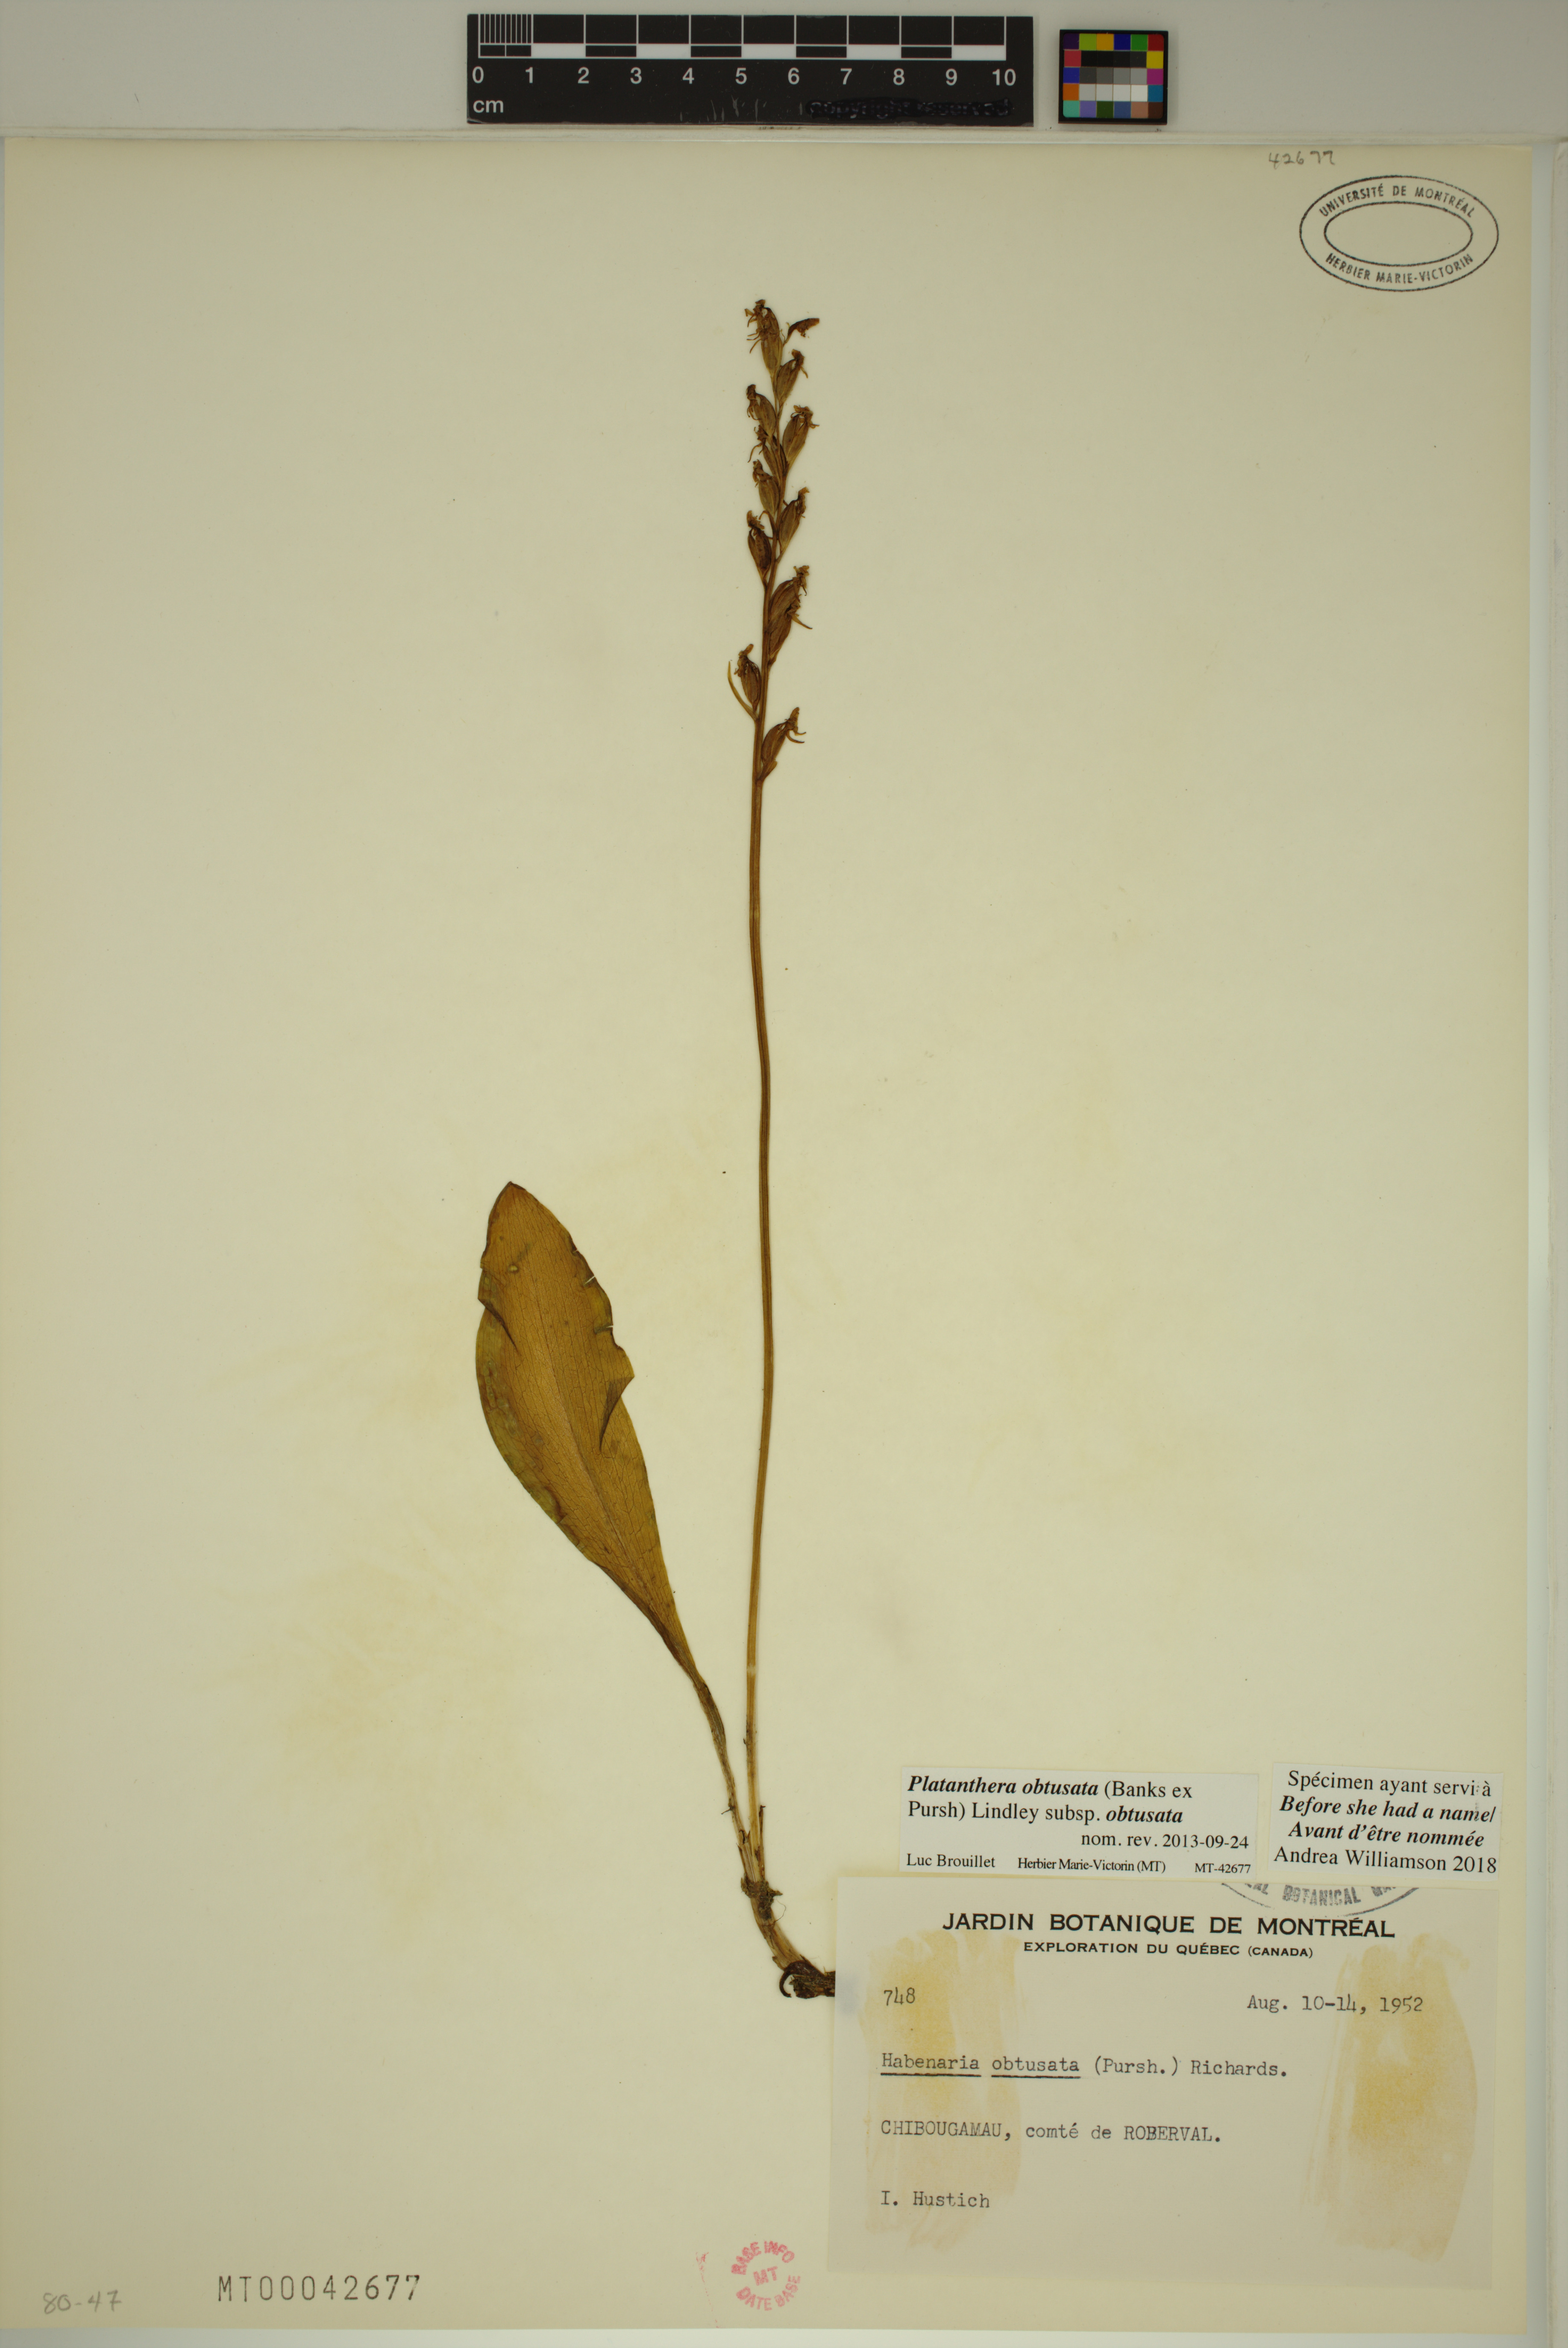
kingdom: Plantae
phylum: Tracheophyta
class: Liliopsida
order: Asparagales
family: Orchidaceae
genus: Platanthera
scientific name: Platanthera obtusata
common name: Blunt bog orchid
